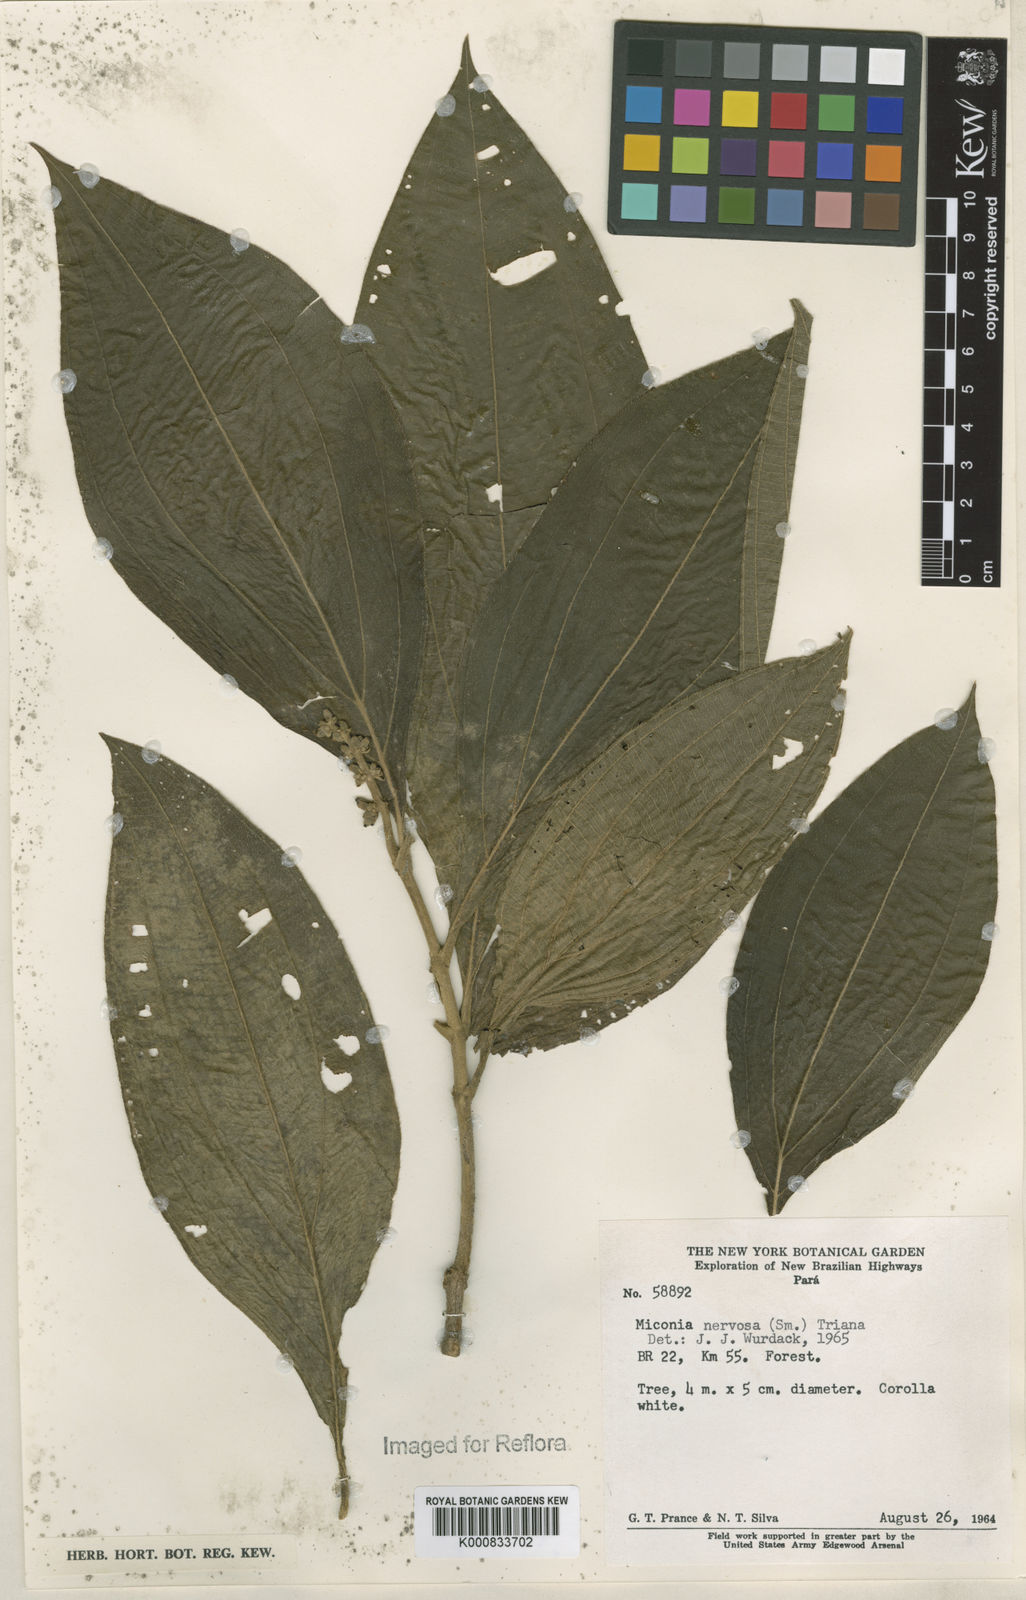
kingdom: Plantae
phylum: Tracheophyta
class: Magnoliopsida
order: Myrtales
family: Melastomataceae
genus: Miconia
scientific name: Miconia nervosa
